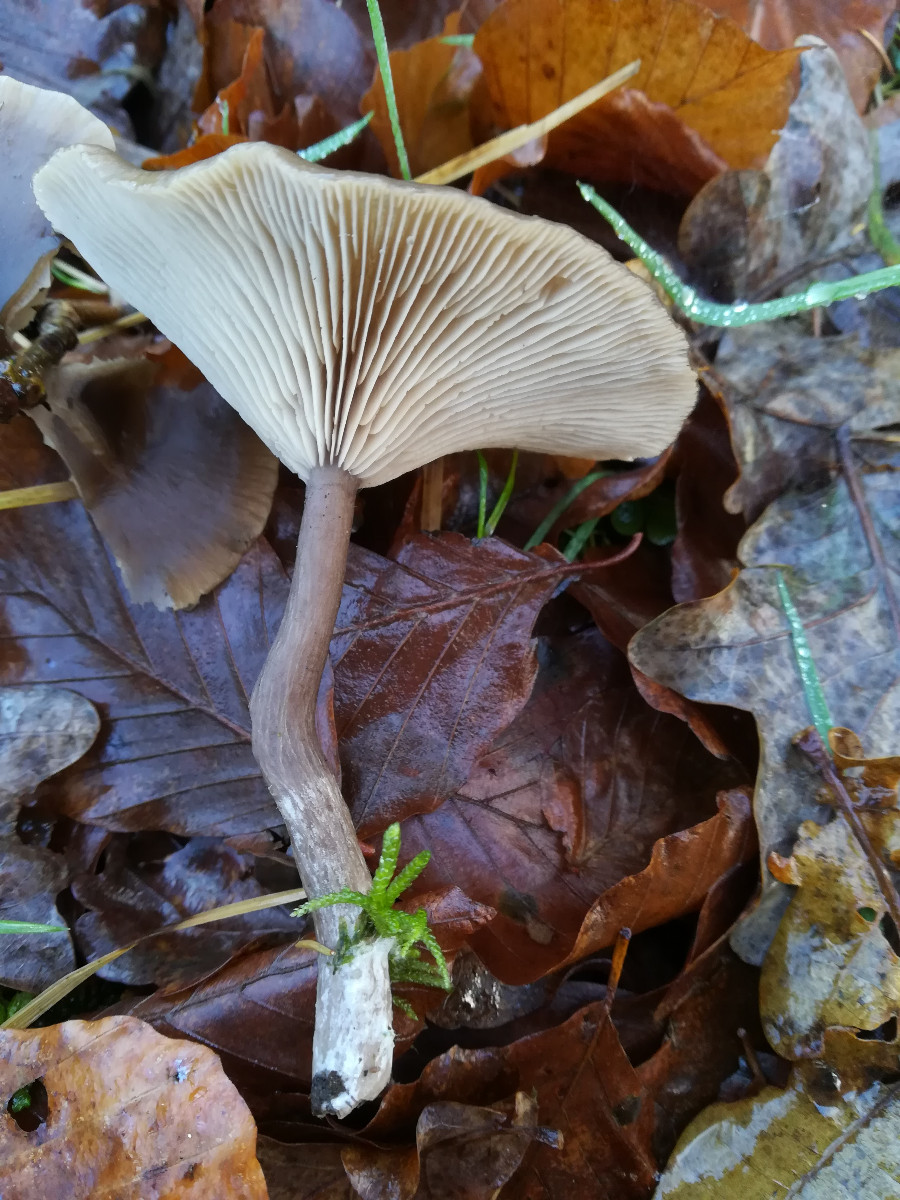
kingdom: Fungi
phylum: Basidiomycota
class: Agaricomycetes
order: Agaricales
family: Pseudoclitocybaceae
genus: Pseudoclitocybe
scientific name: Pseudoclitocybe cyathiformis
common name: almindelig bægertragthat
